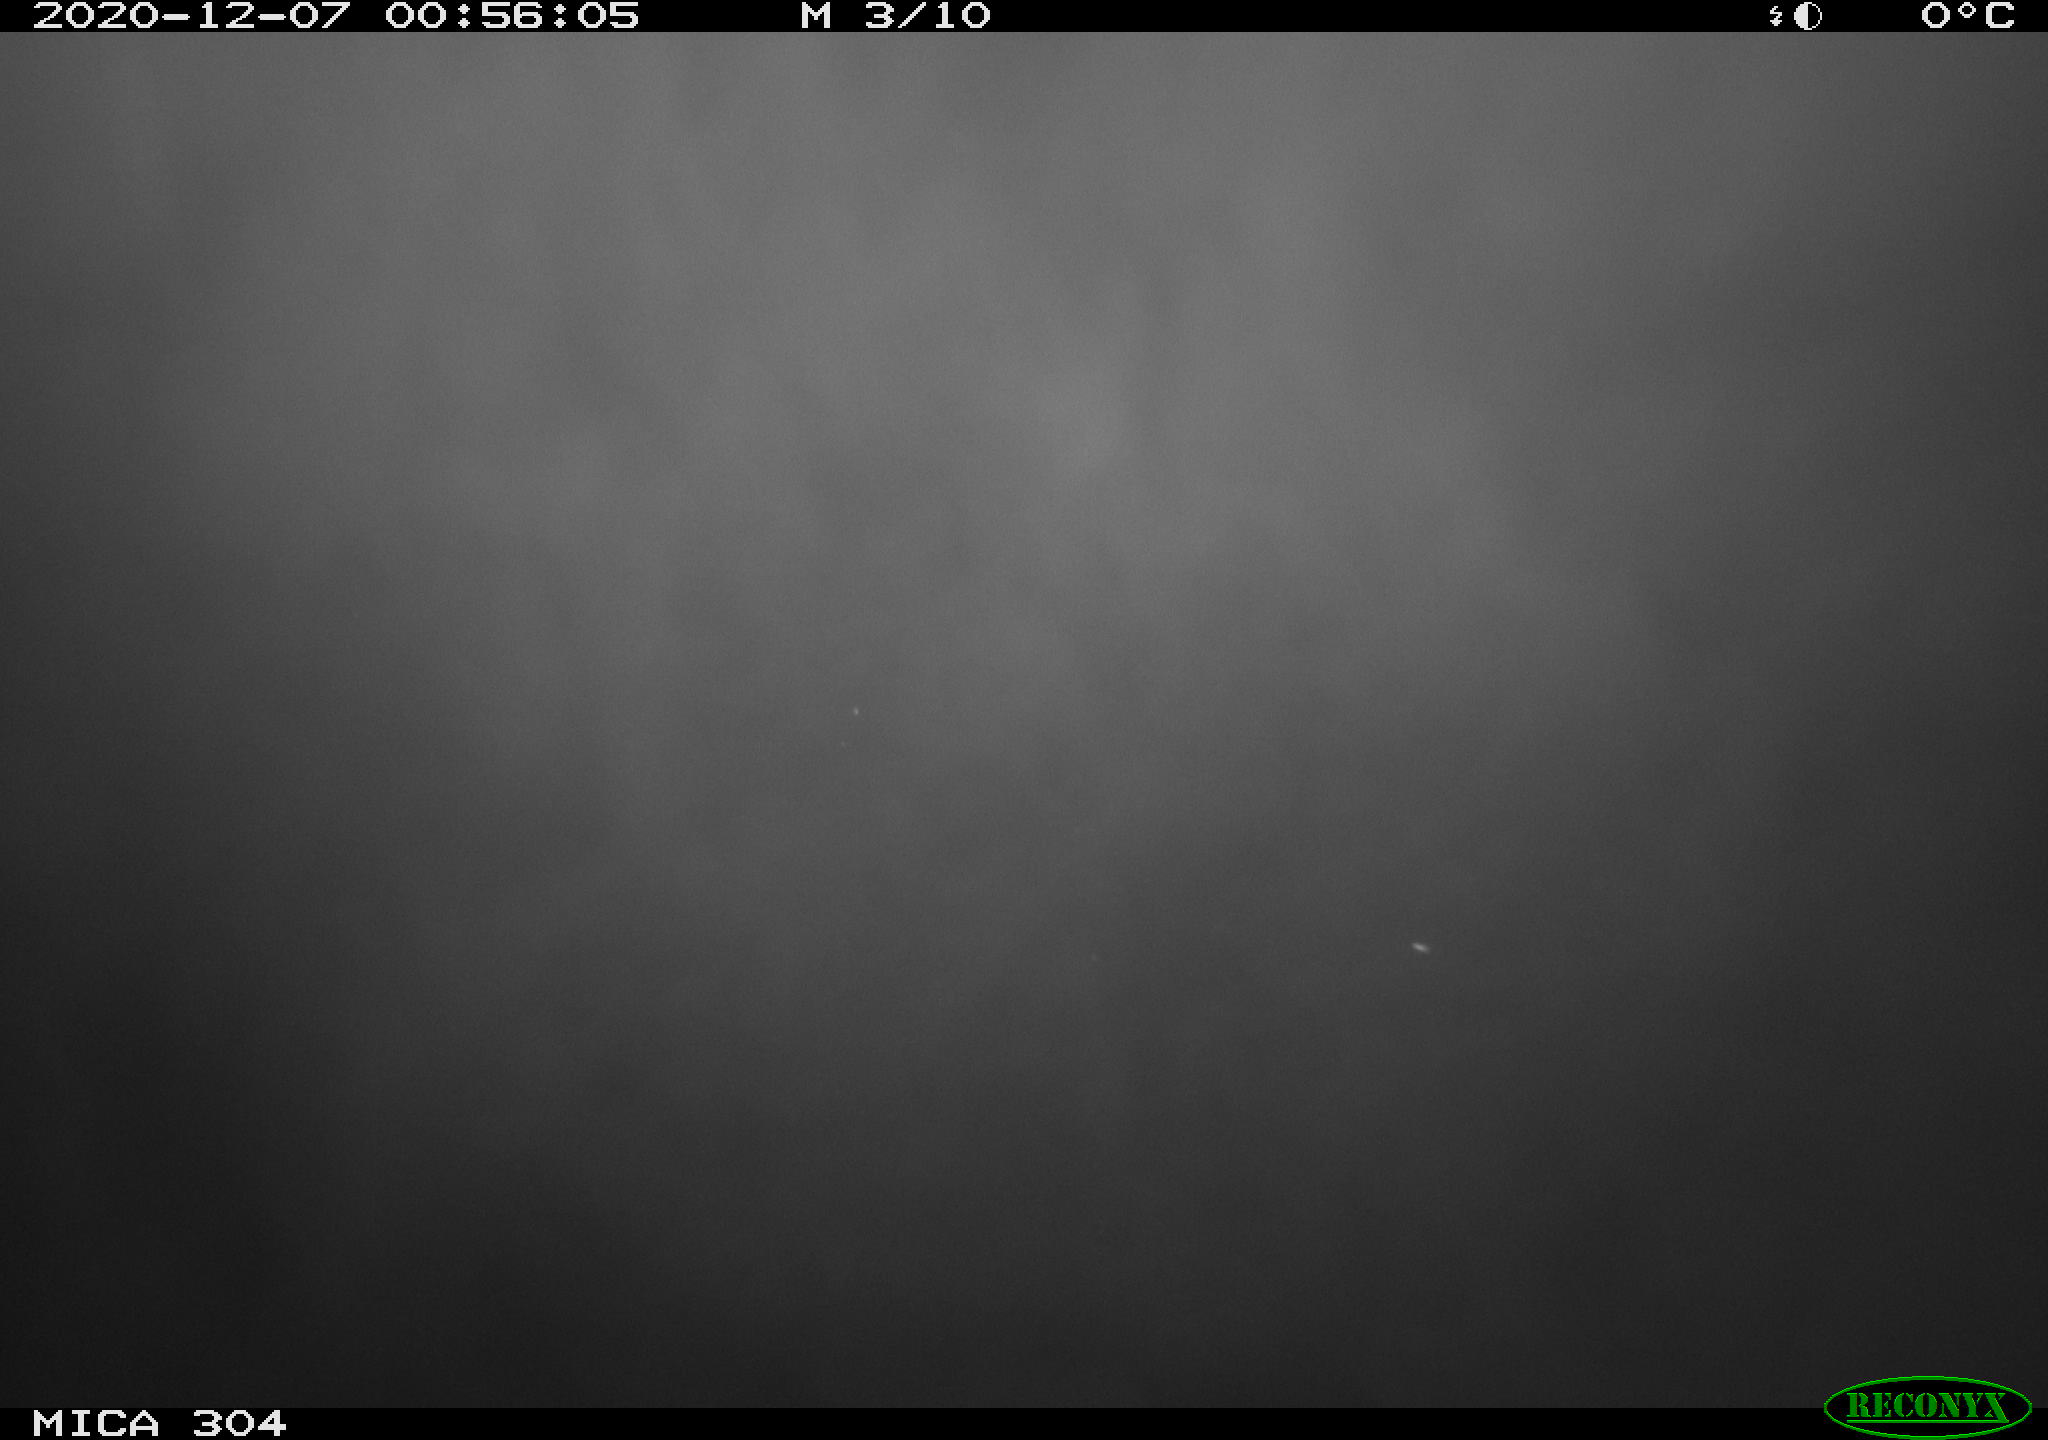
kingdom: Animalia
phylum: Chordata
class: Mammalia
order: Rodentia
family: Muridae
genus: Rattus
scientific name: Rattus norvegicus
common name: Brown rat
